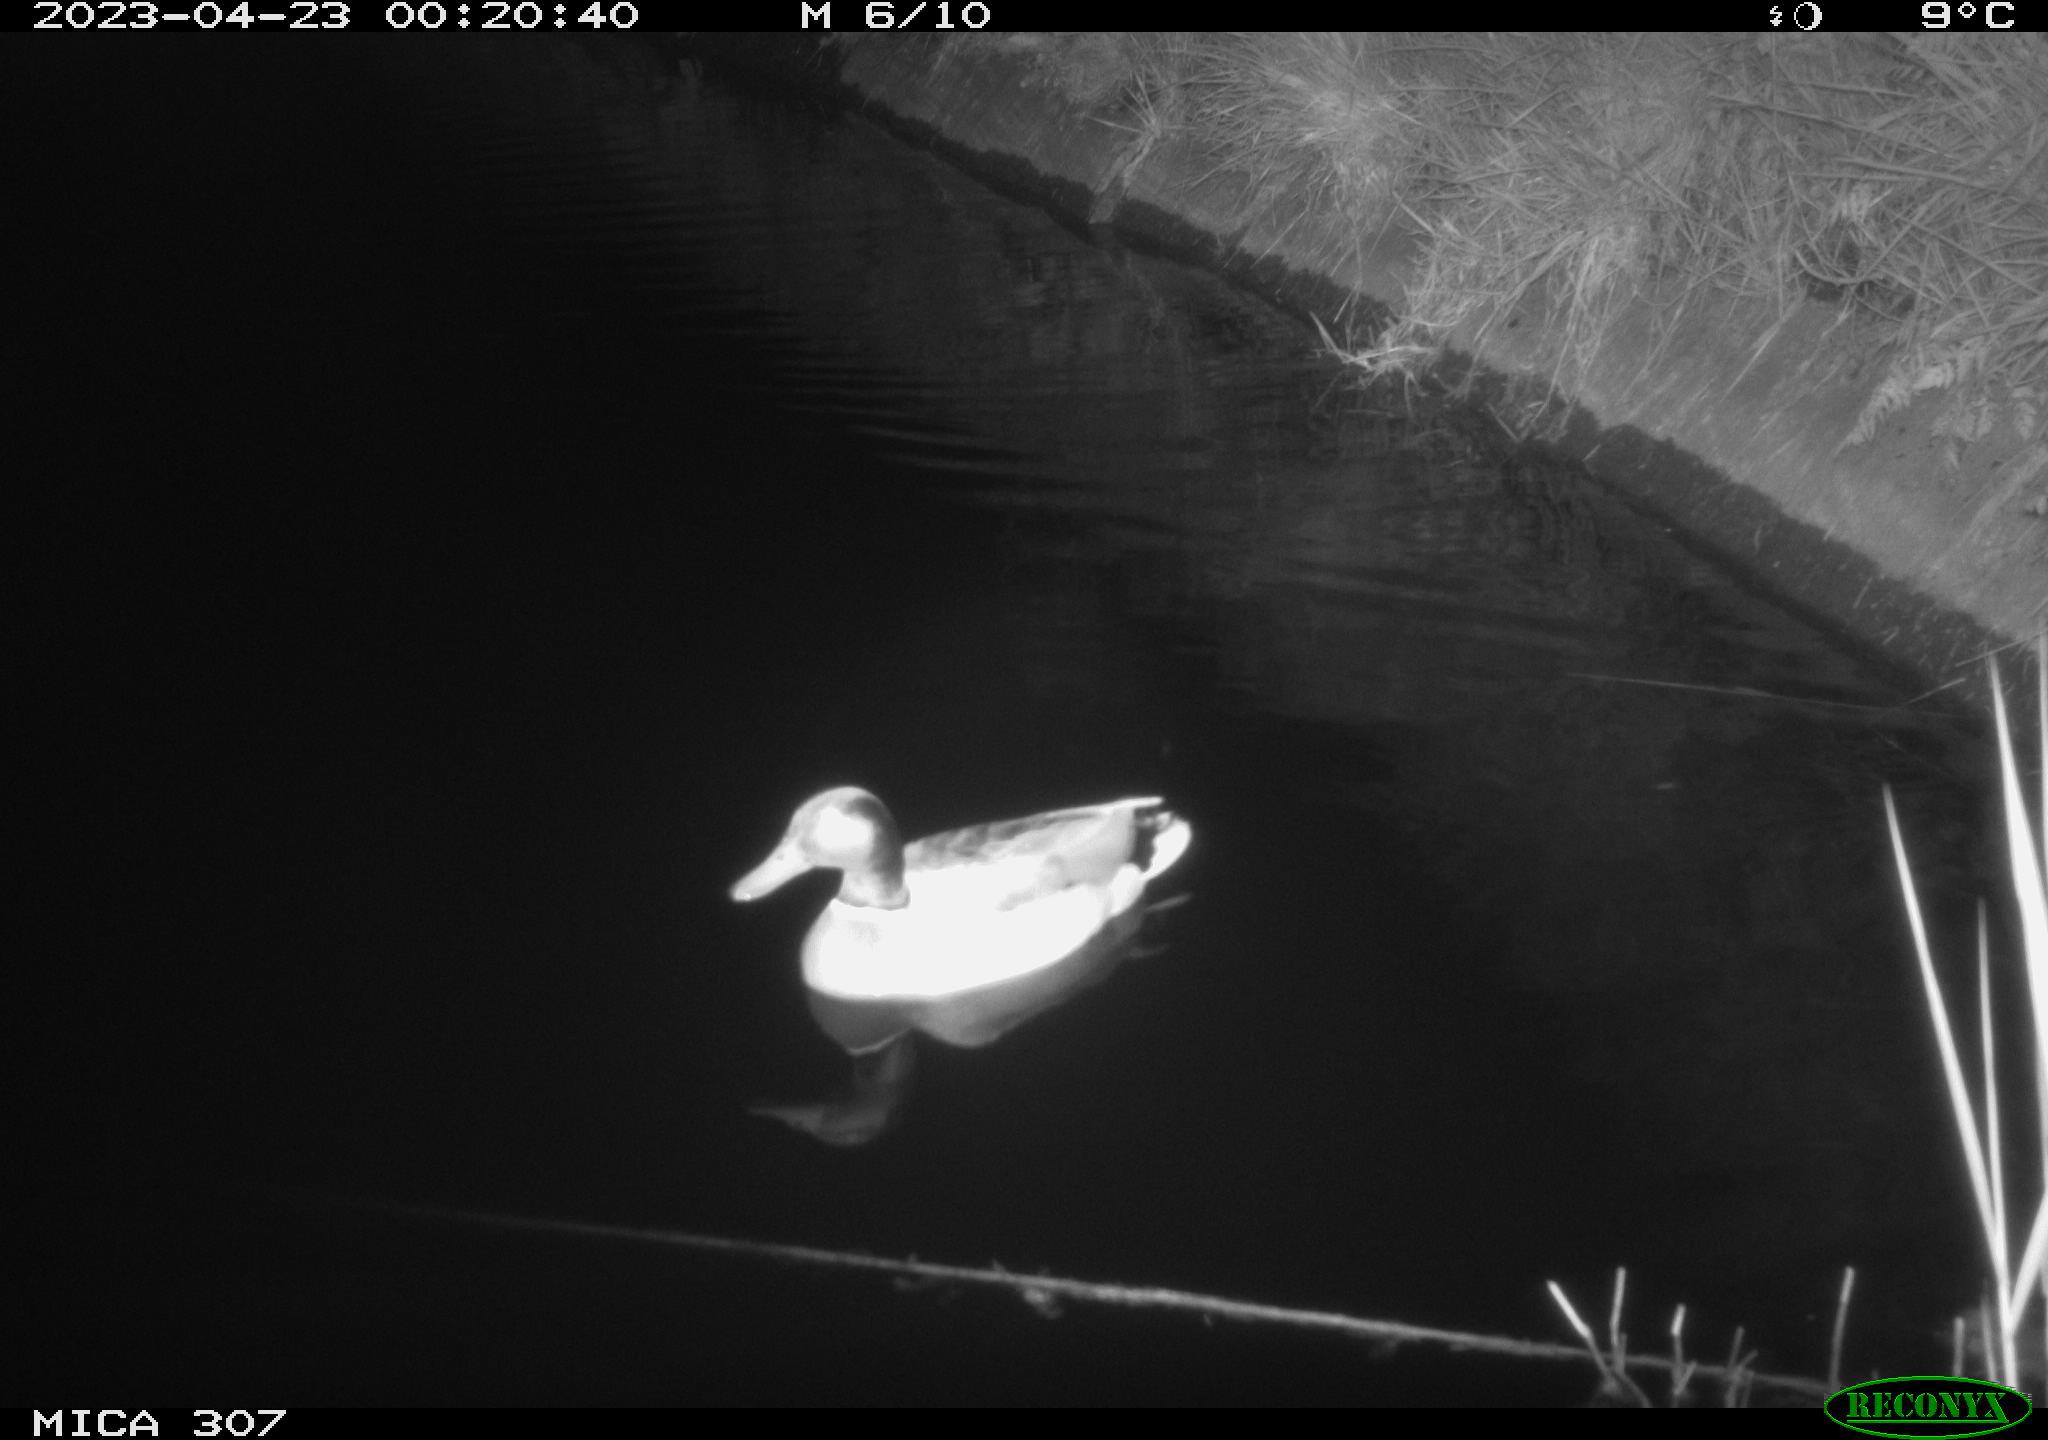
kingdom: Animalia
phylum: Chordata
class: Aves
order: Anseriformes
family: Anatidae
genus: Anas
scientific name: Anas
